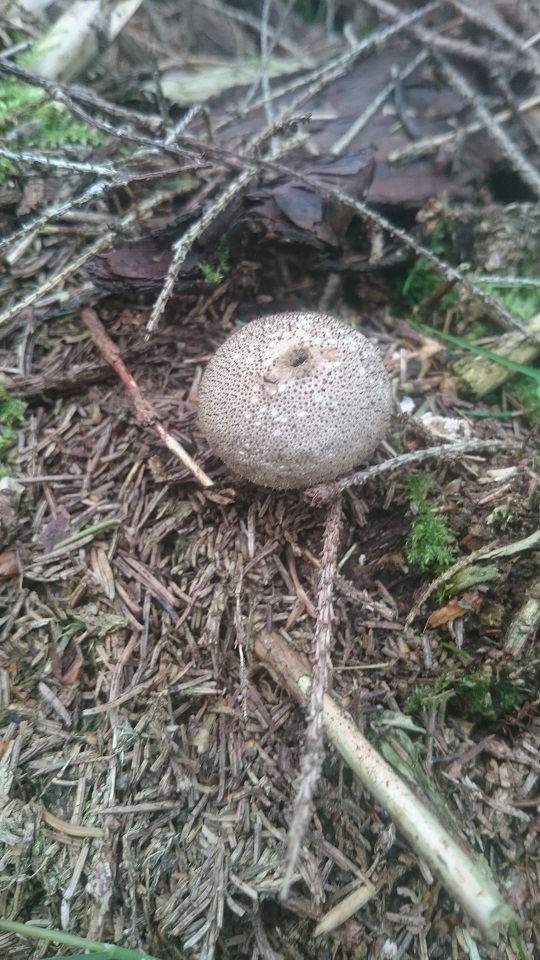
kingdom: Fungi
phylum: Basidiomycota
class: Agaricomycetes
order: Agaricales
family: Lycoperdaceae
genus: Lycoperdon
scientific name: Lycoperdon perlatum
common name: krystal-støvbold
